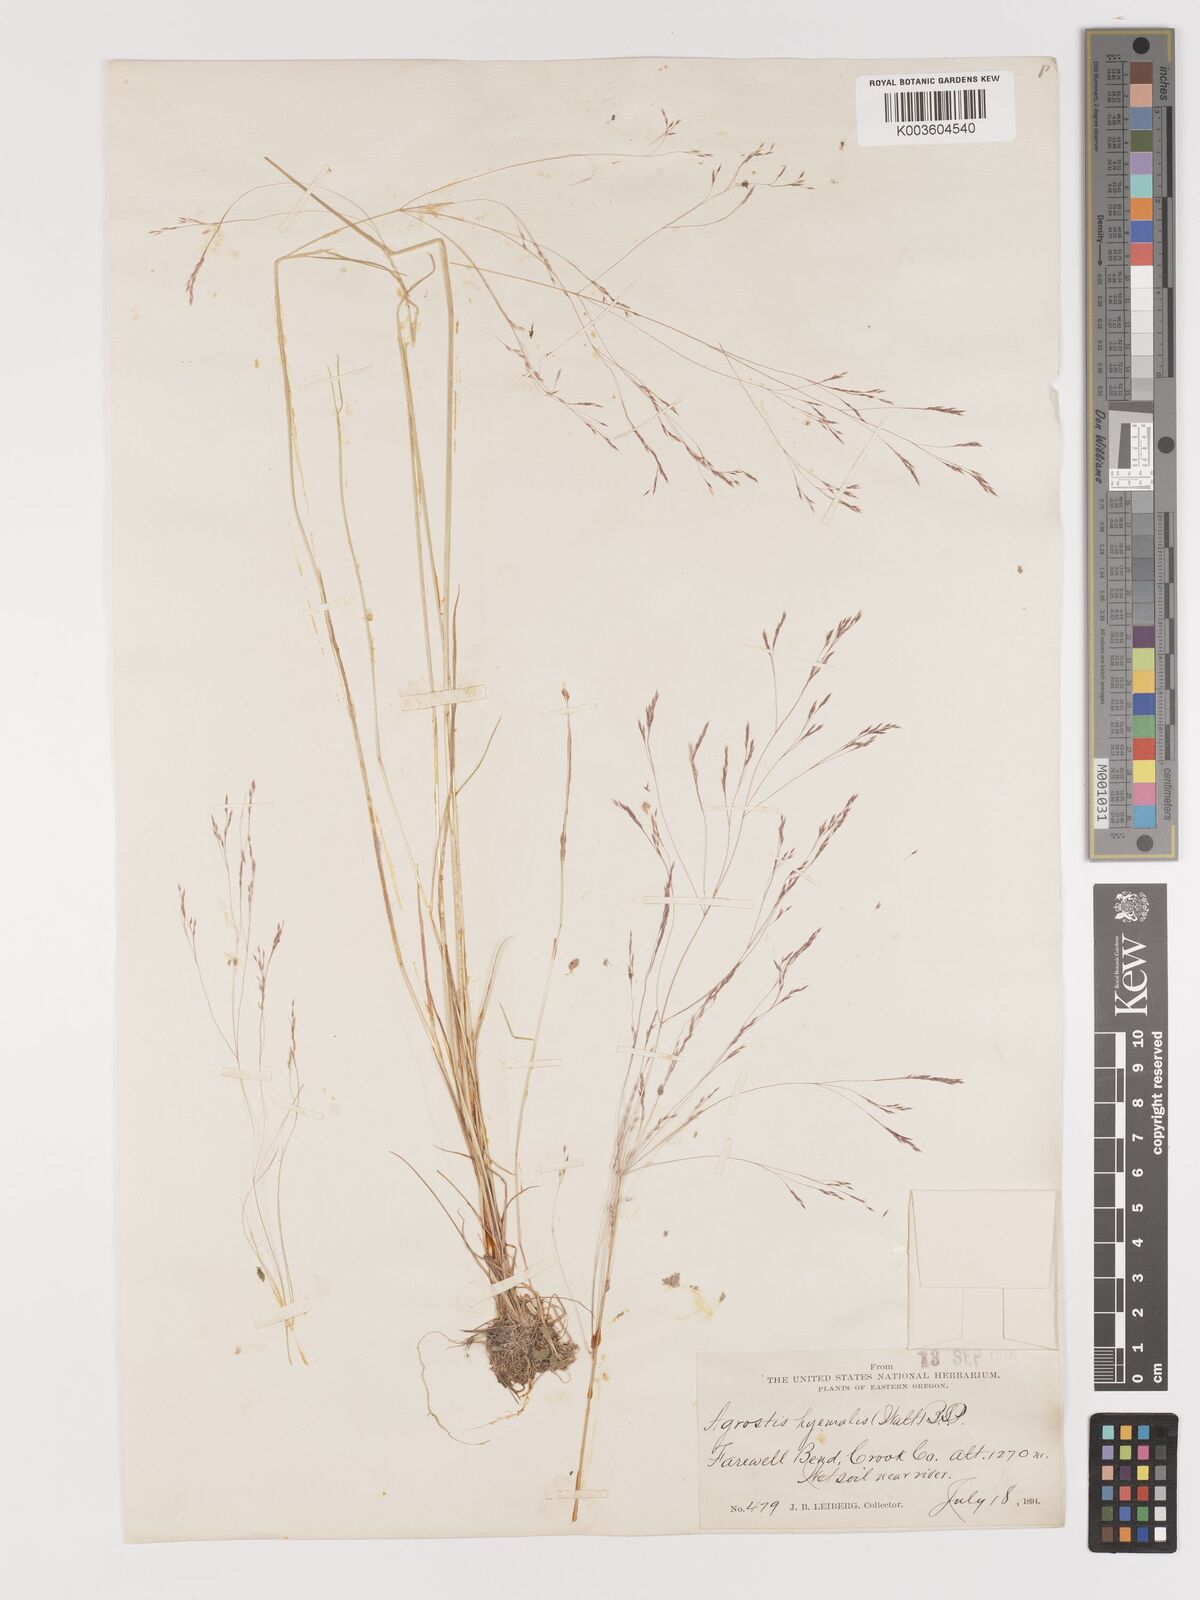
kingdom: Plantae
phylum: Tracheophyta
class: Liliopsida
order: Poales
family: Poaceae
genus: Agrostis
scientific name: Agrostis hyemalis
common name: Small bent
